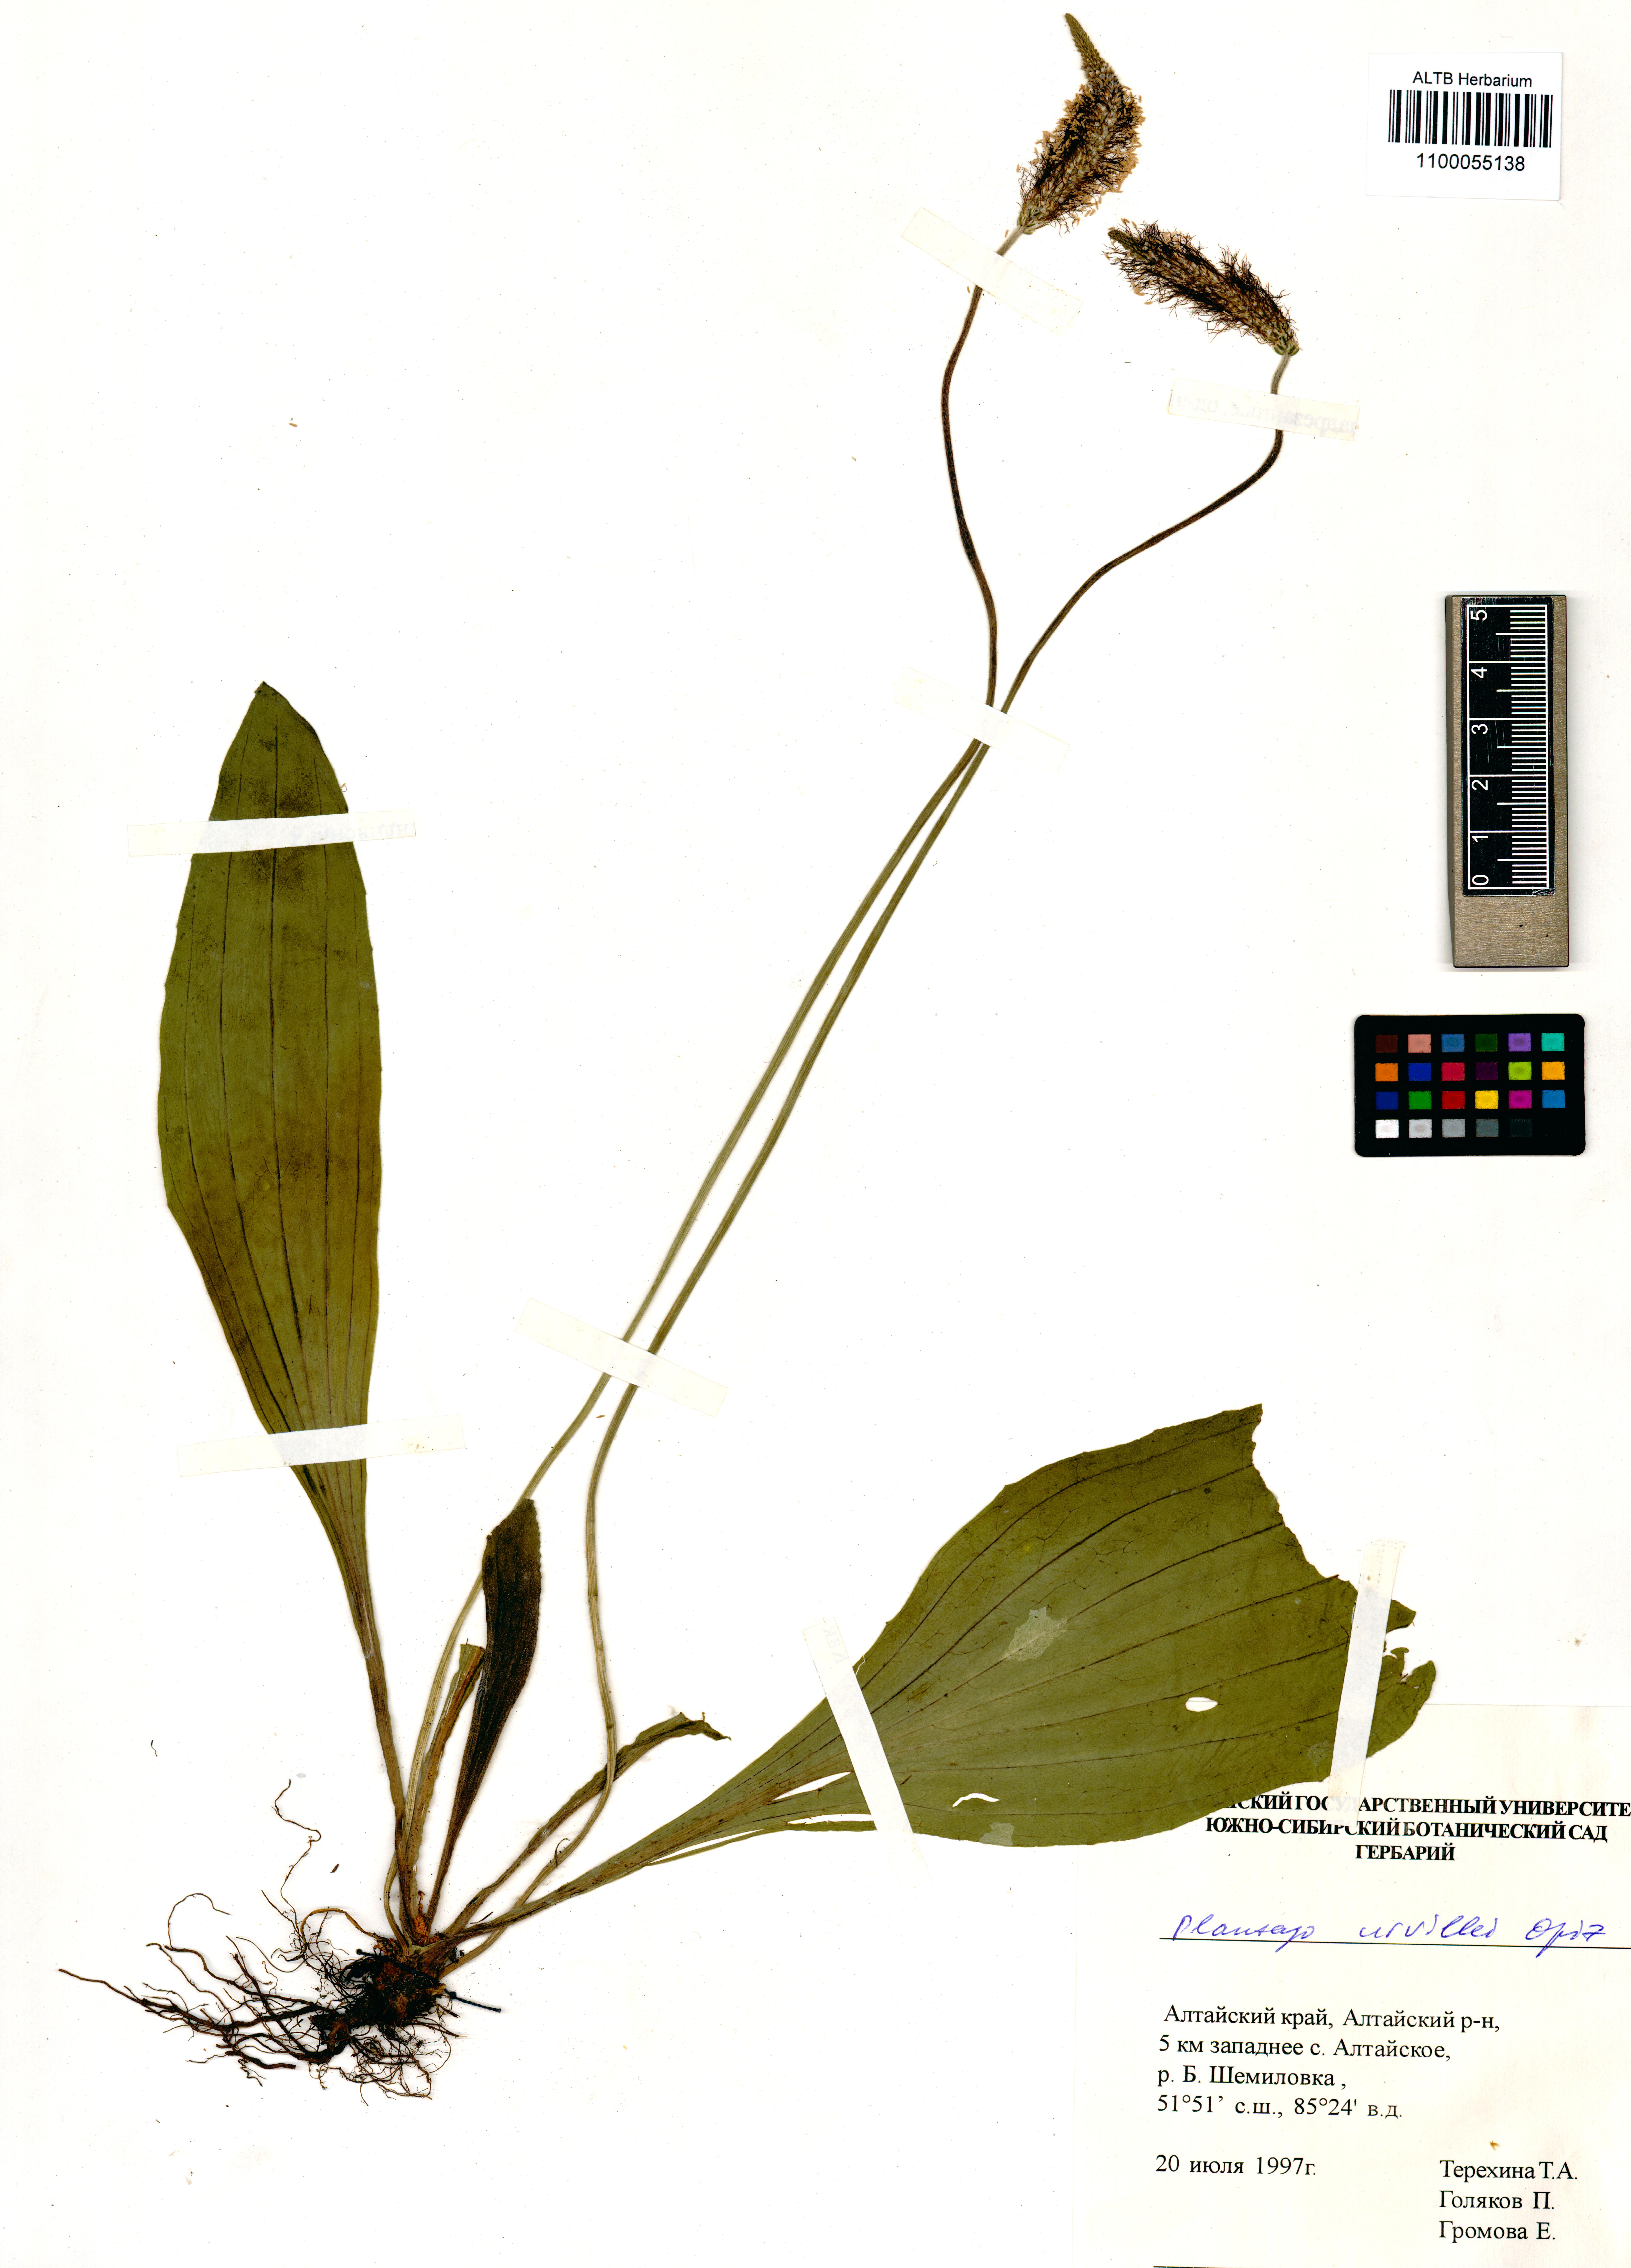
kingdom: Plantae
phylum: Tracheophyta
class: Magnoliopsida
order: Lamiales
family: Plantaginaceae
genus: Plantago
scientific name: Plantago urvillei
